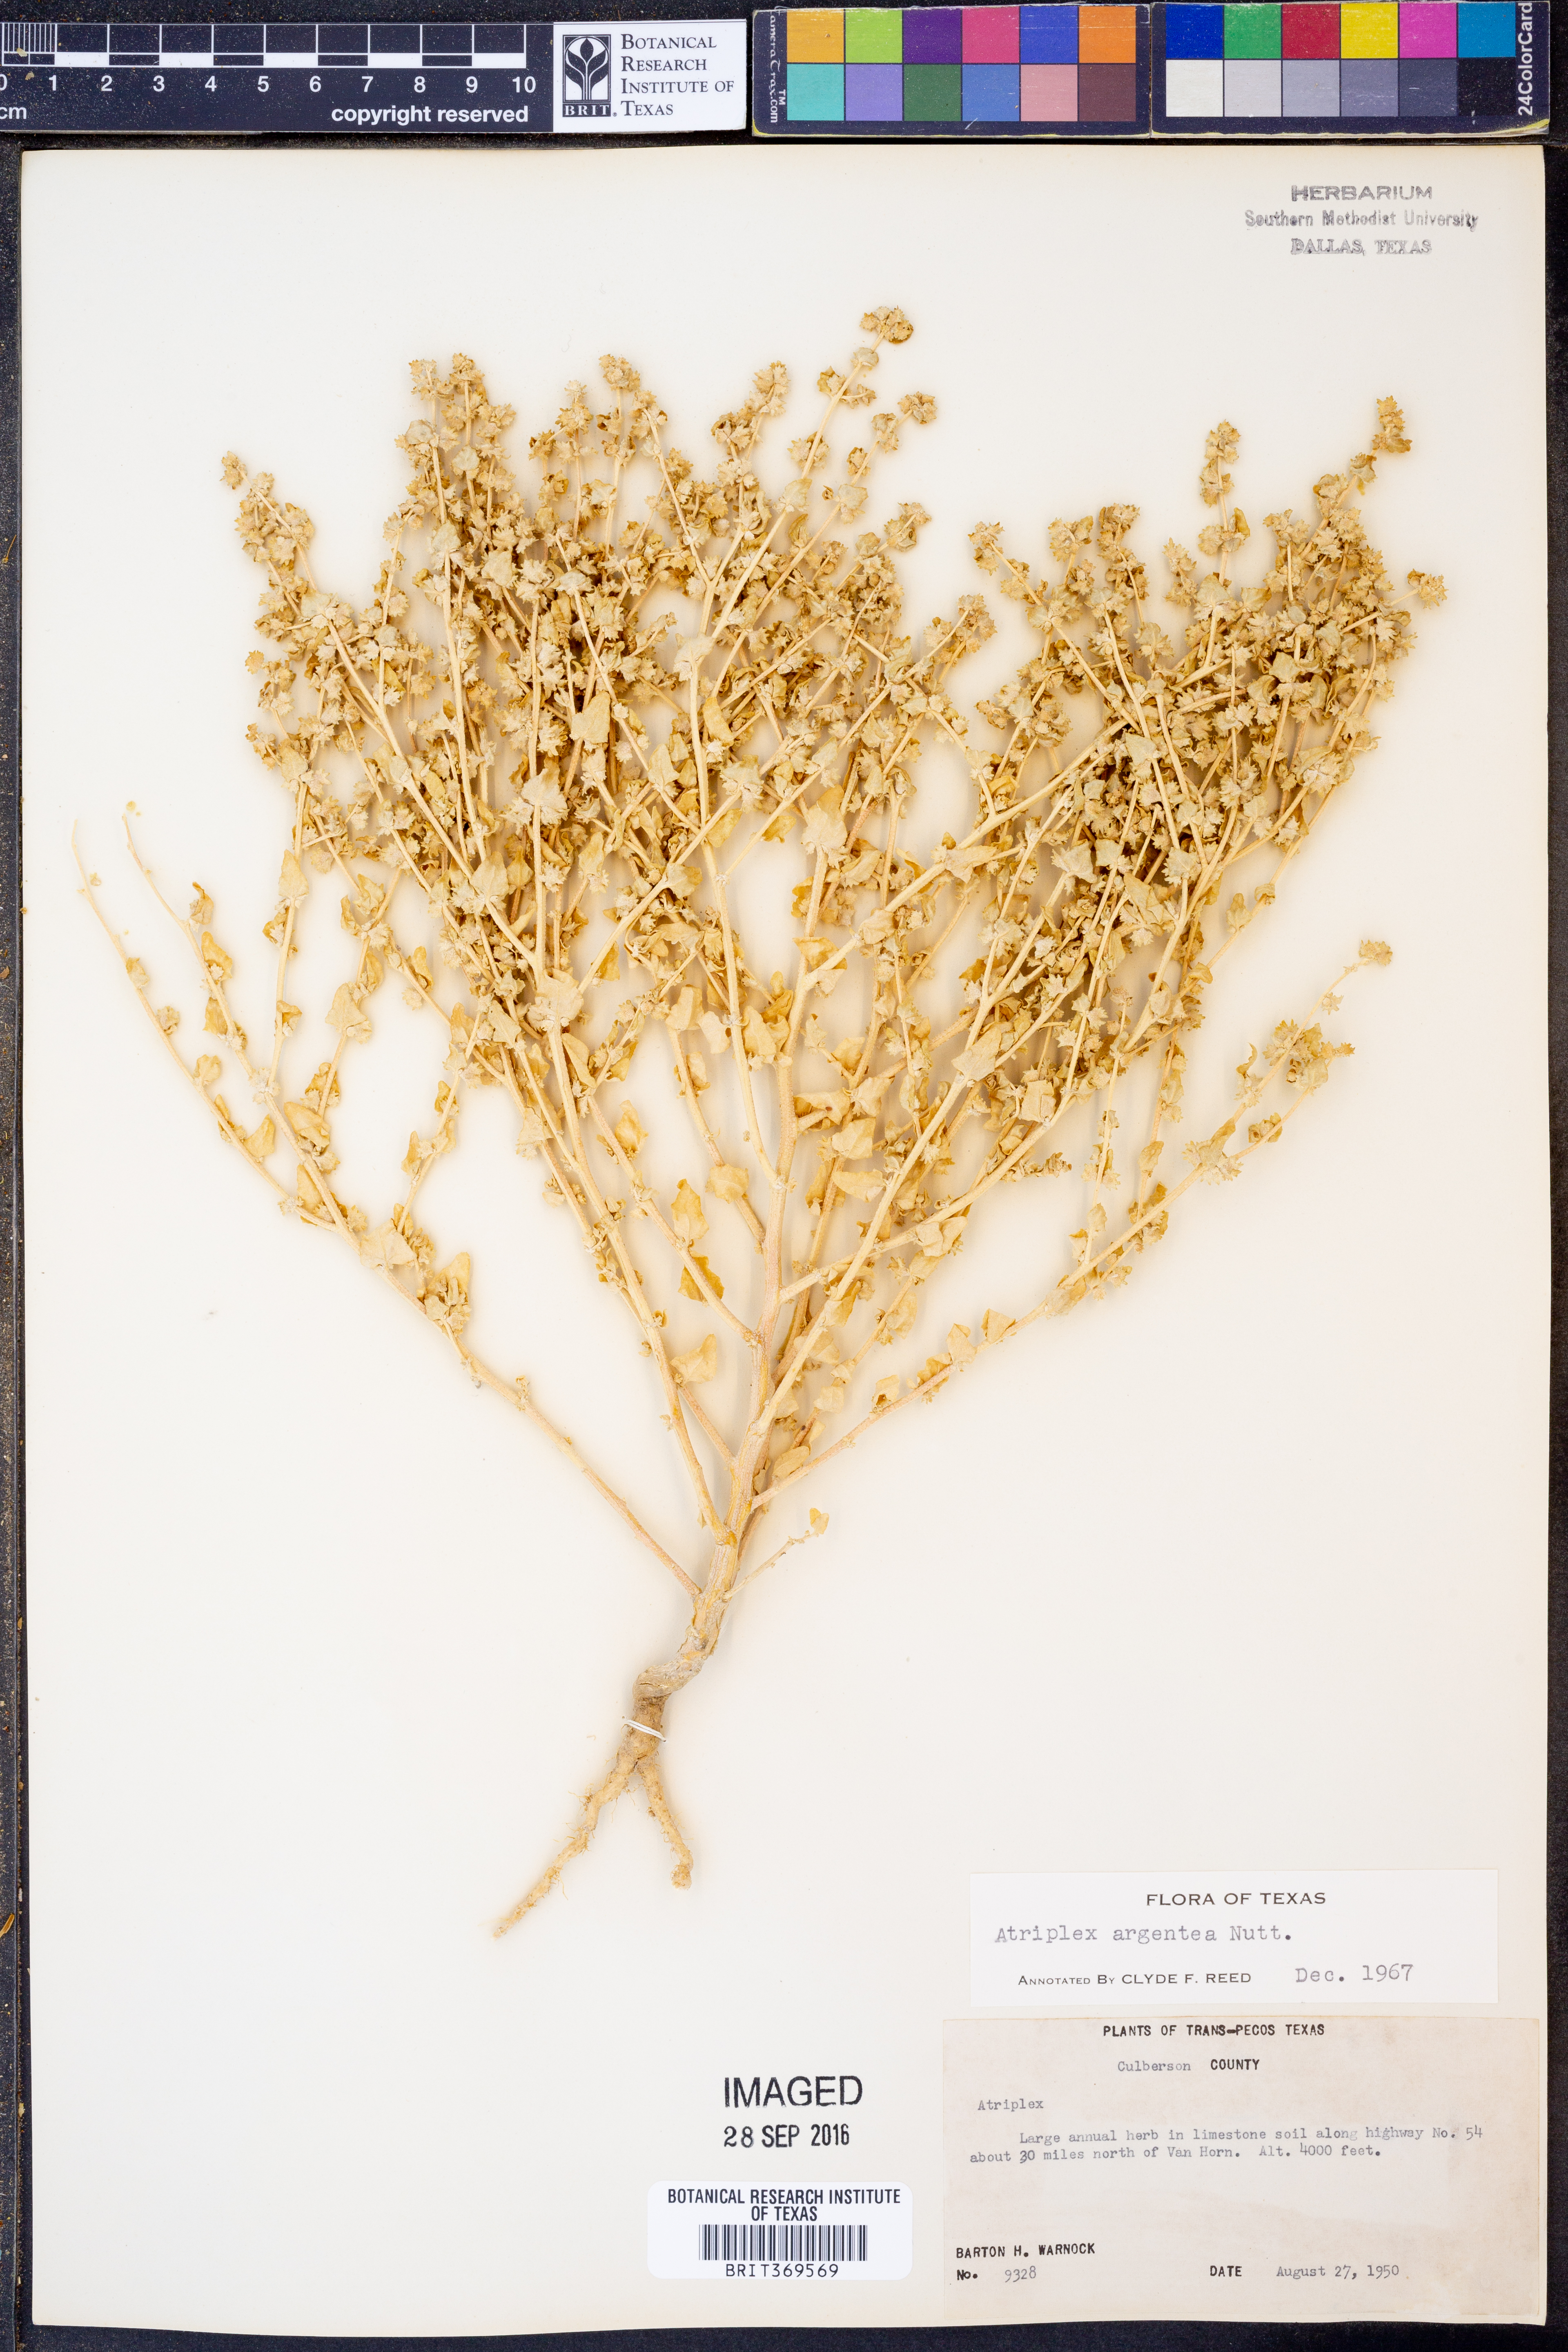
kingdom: Plantae
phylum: Tracheophyta
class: Magnoliopsida
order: Caryophyllales
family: Amaranthaceae
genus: Atriplex
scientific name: Atriplex argentea
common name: Silverscale
